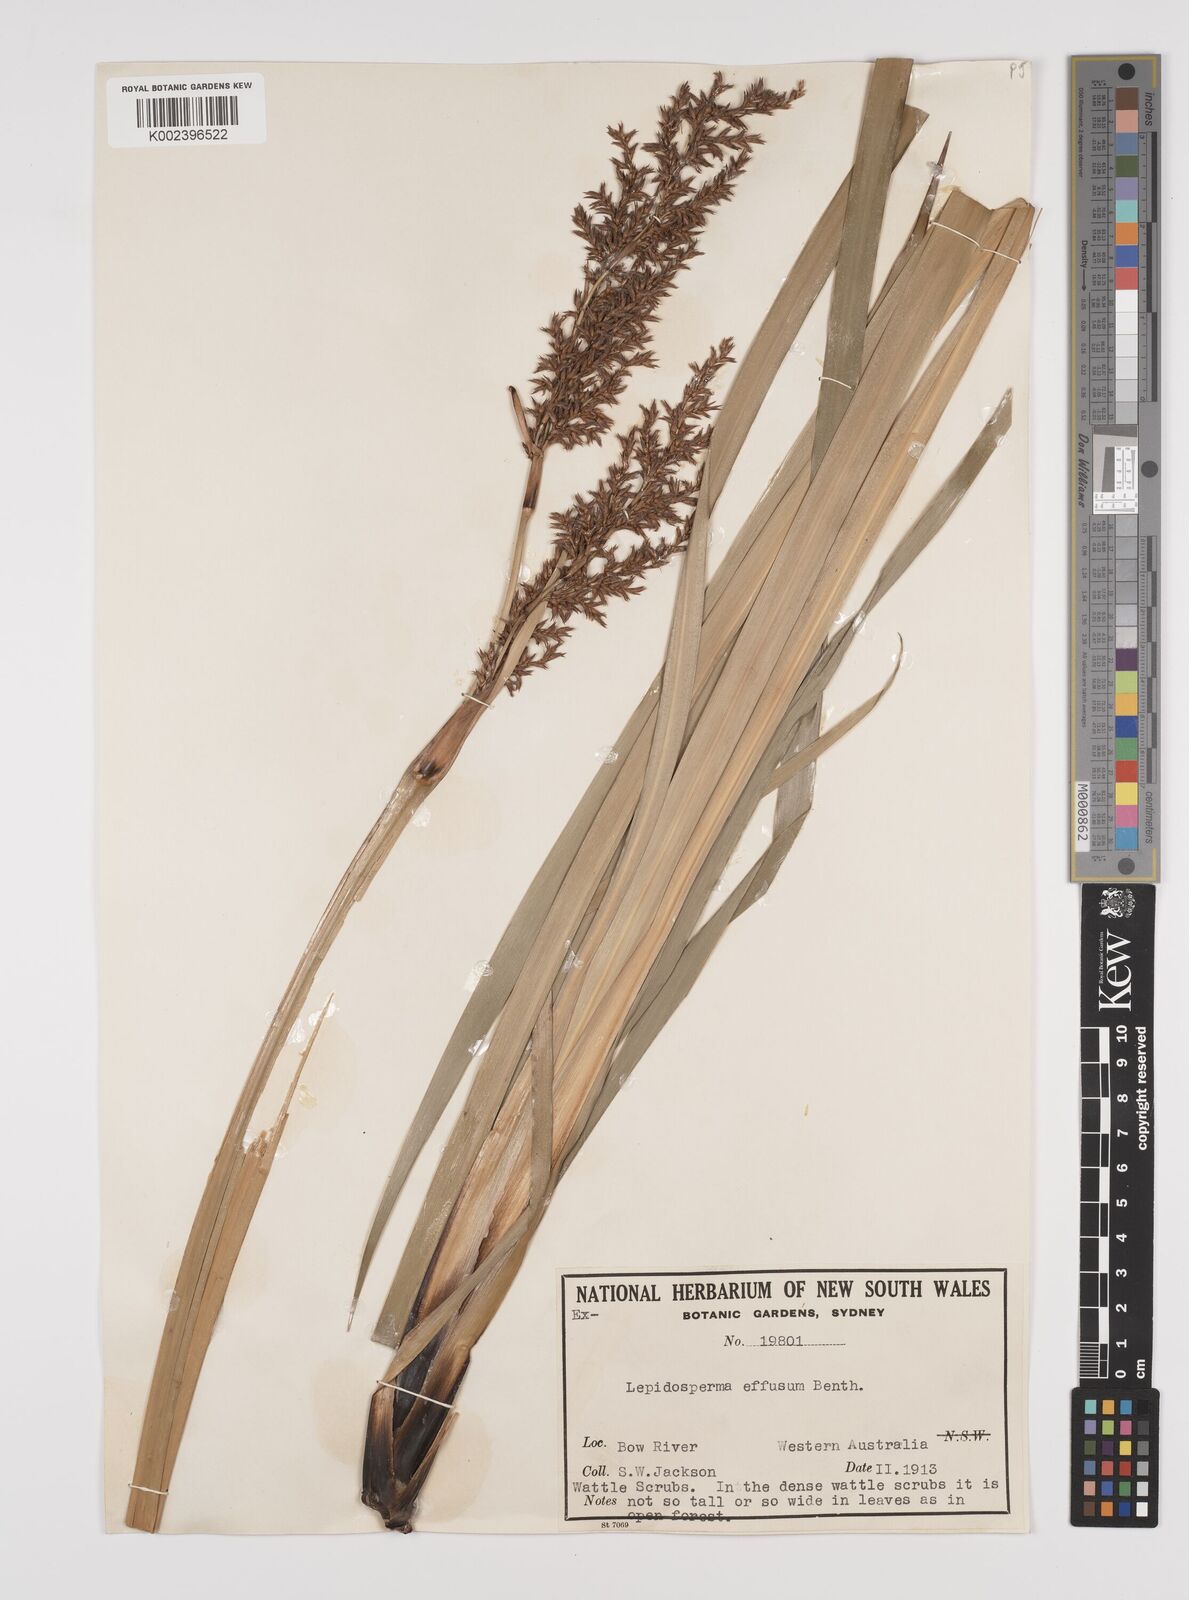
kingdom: Plantae
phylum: Tracheophyta
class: Liliopsida
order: Poales
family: Cyperaceae
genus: Lepidosperma
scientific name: Lepidosperma effusum
